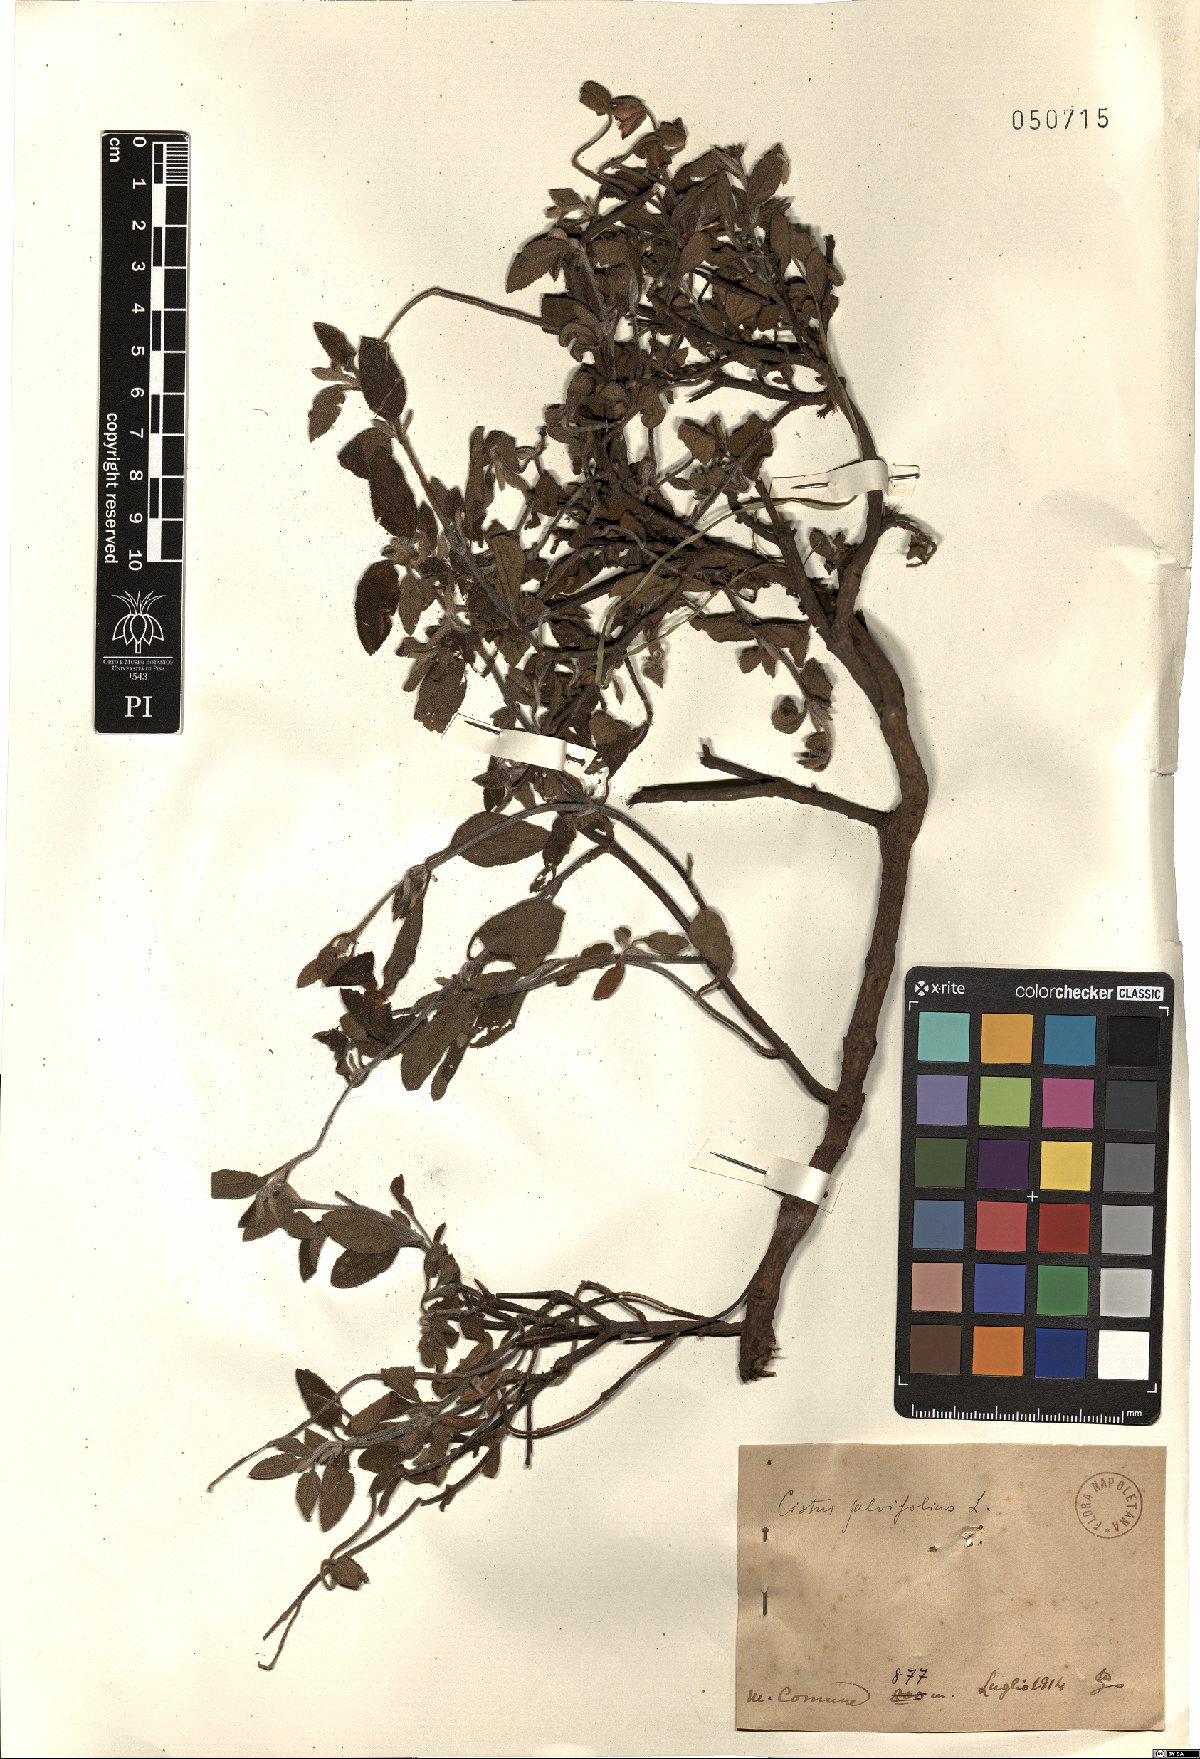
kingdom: Plantae
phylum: Tracheophyta
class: Magnoliopsida
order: Malvales
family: Cistaceae
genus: Cistus
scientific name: Cistus salviifolius
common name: Salvia cistus
